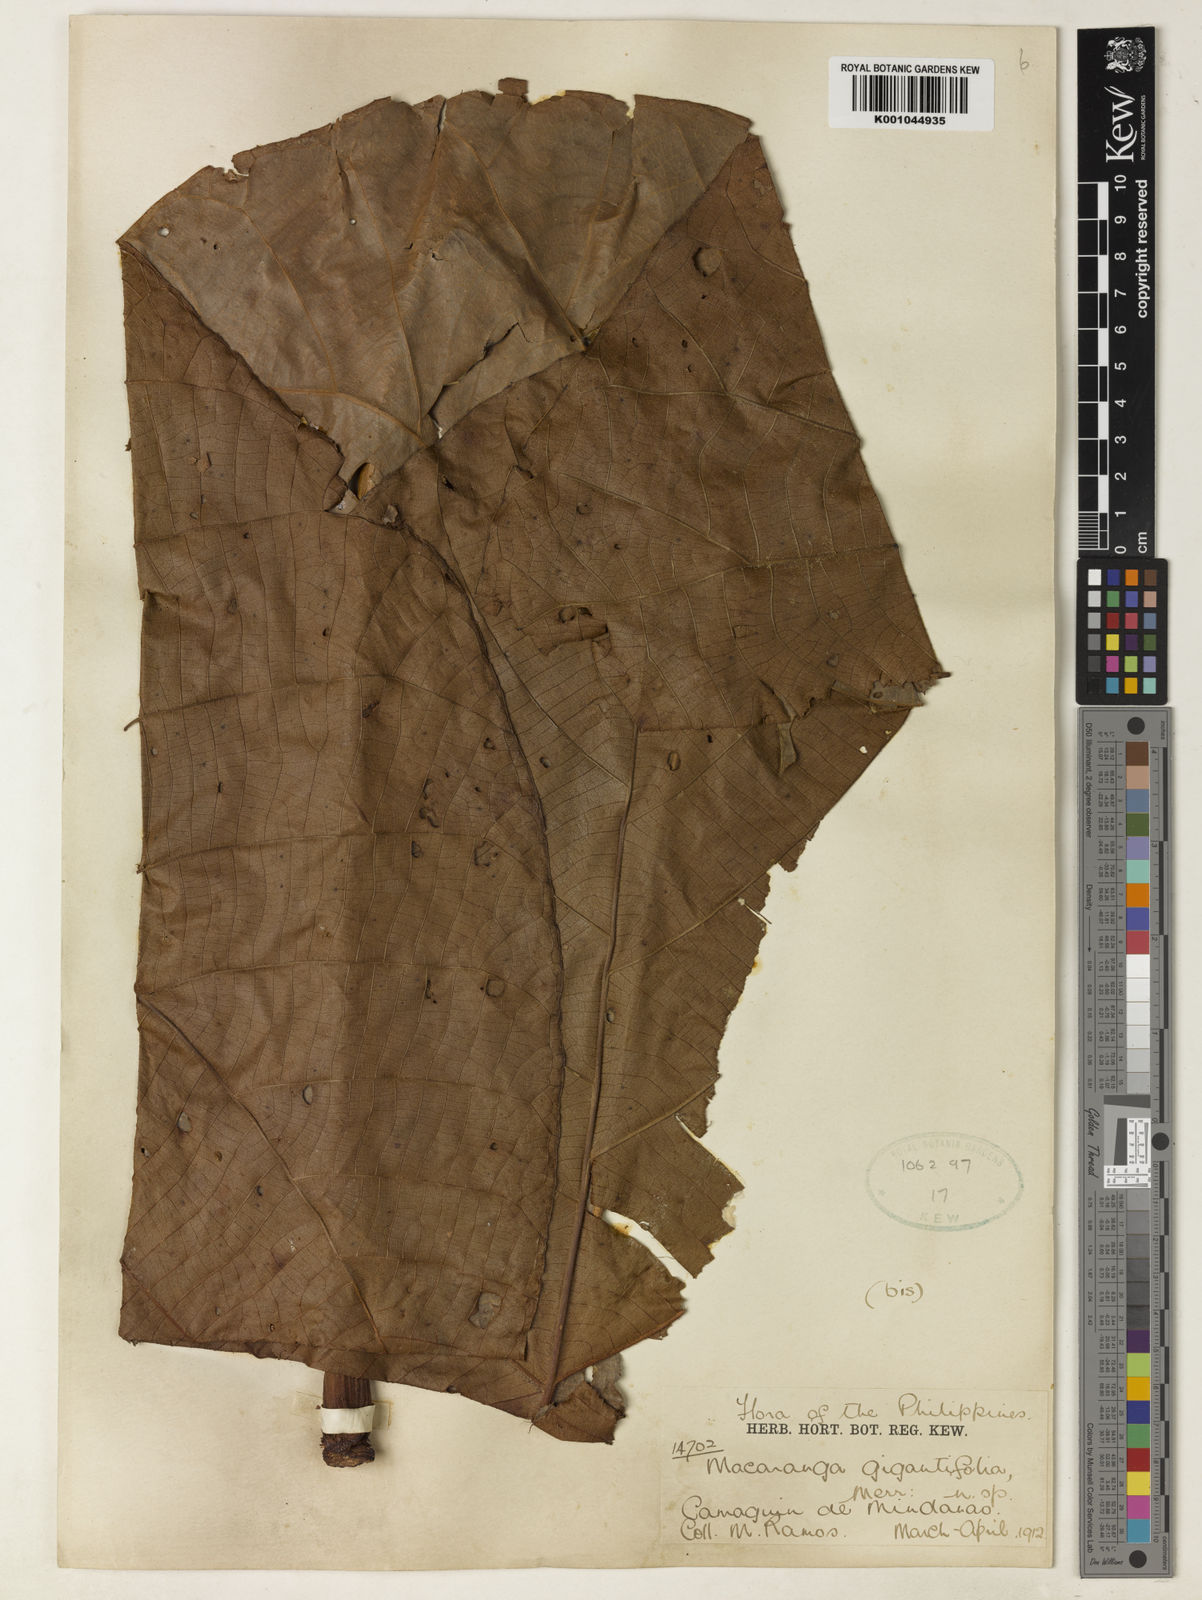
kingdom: Plantae
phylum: Tracheophyta
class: Magnoliopsida
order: Malpighiales
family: Euphorbiaceae
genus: Macaranga
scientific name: Macaranga
